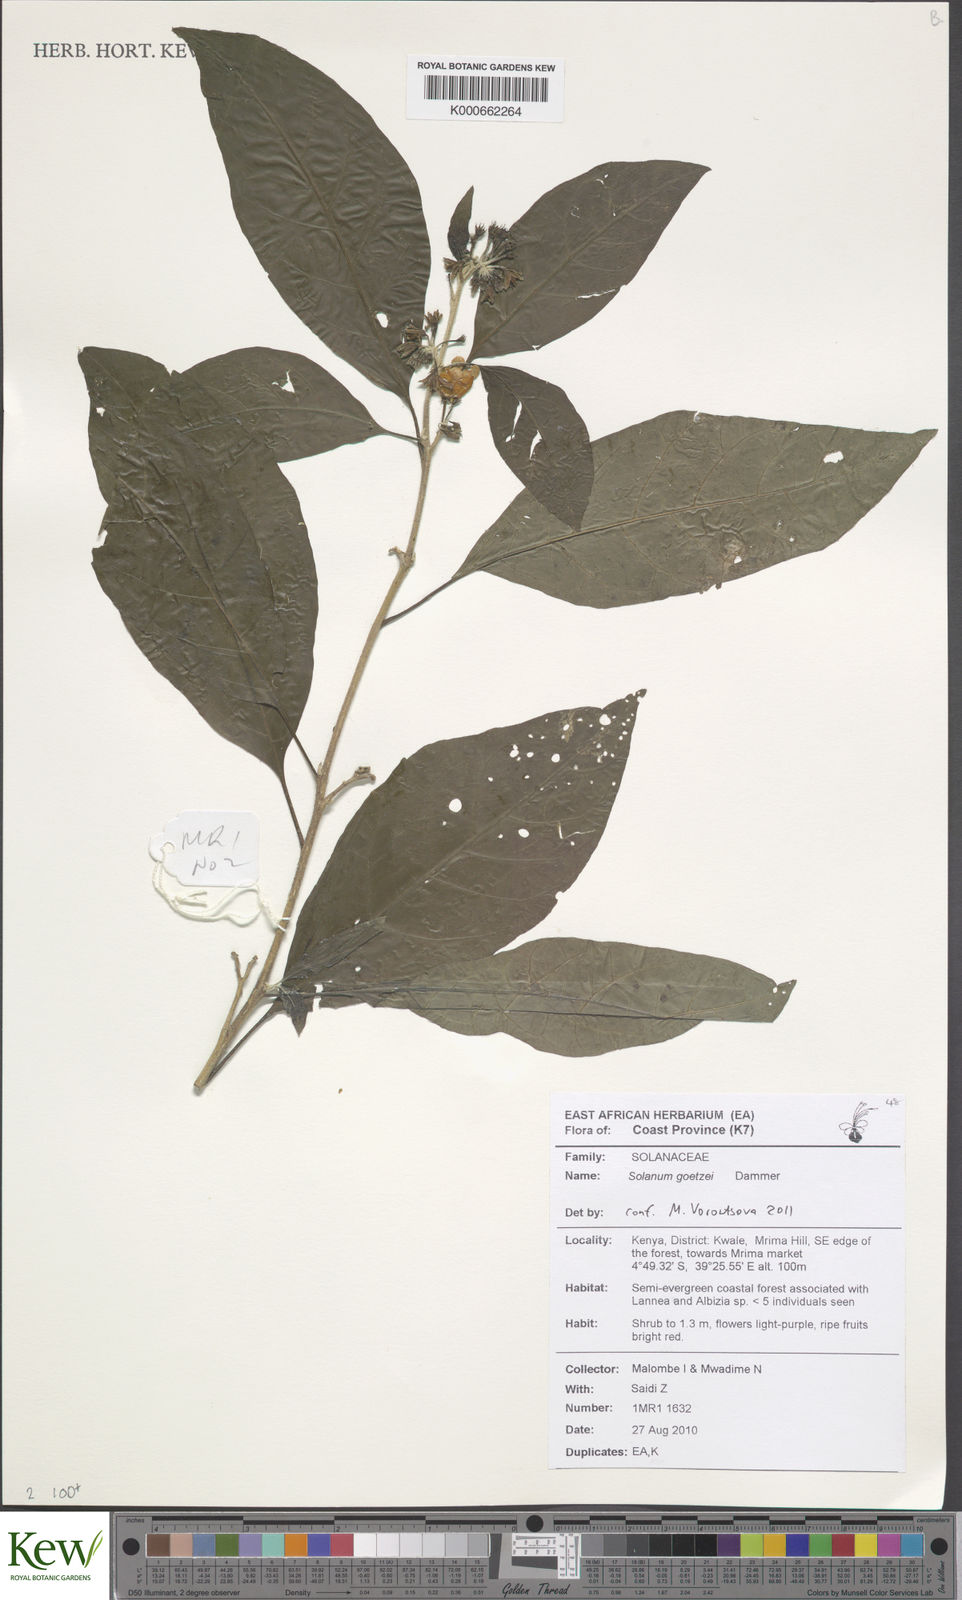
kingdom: Plantae
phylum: Tracheophyta
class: Magnoliopsida
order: Solanales
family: Solanaceae
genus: Solanum
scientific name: Solanum goetzei
